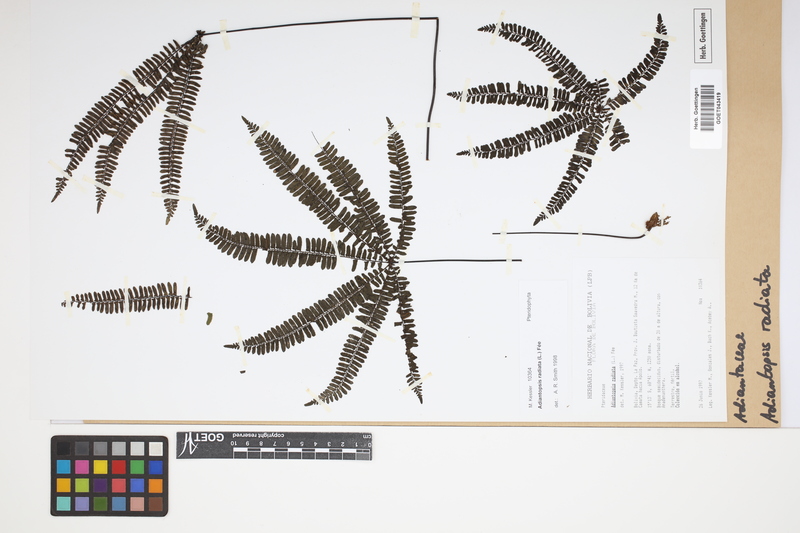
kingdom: Plantae
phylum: Tracheophyta
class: Polypodiopsida
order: Polypodiales
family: Pteridaceae
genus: Adiantopsis
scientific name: Adiantopsis radiata
